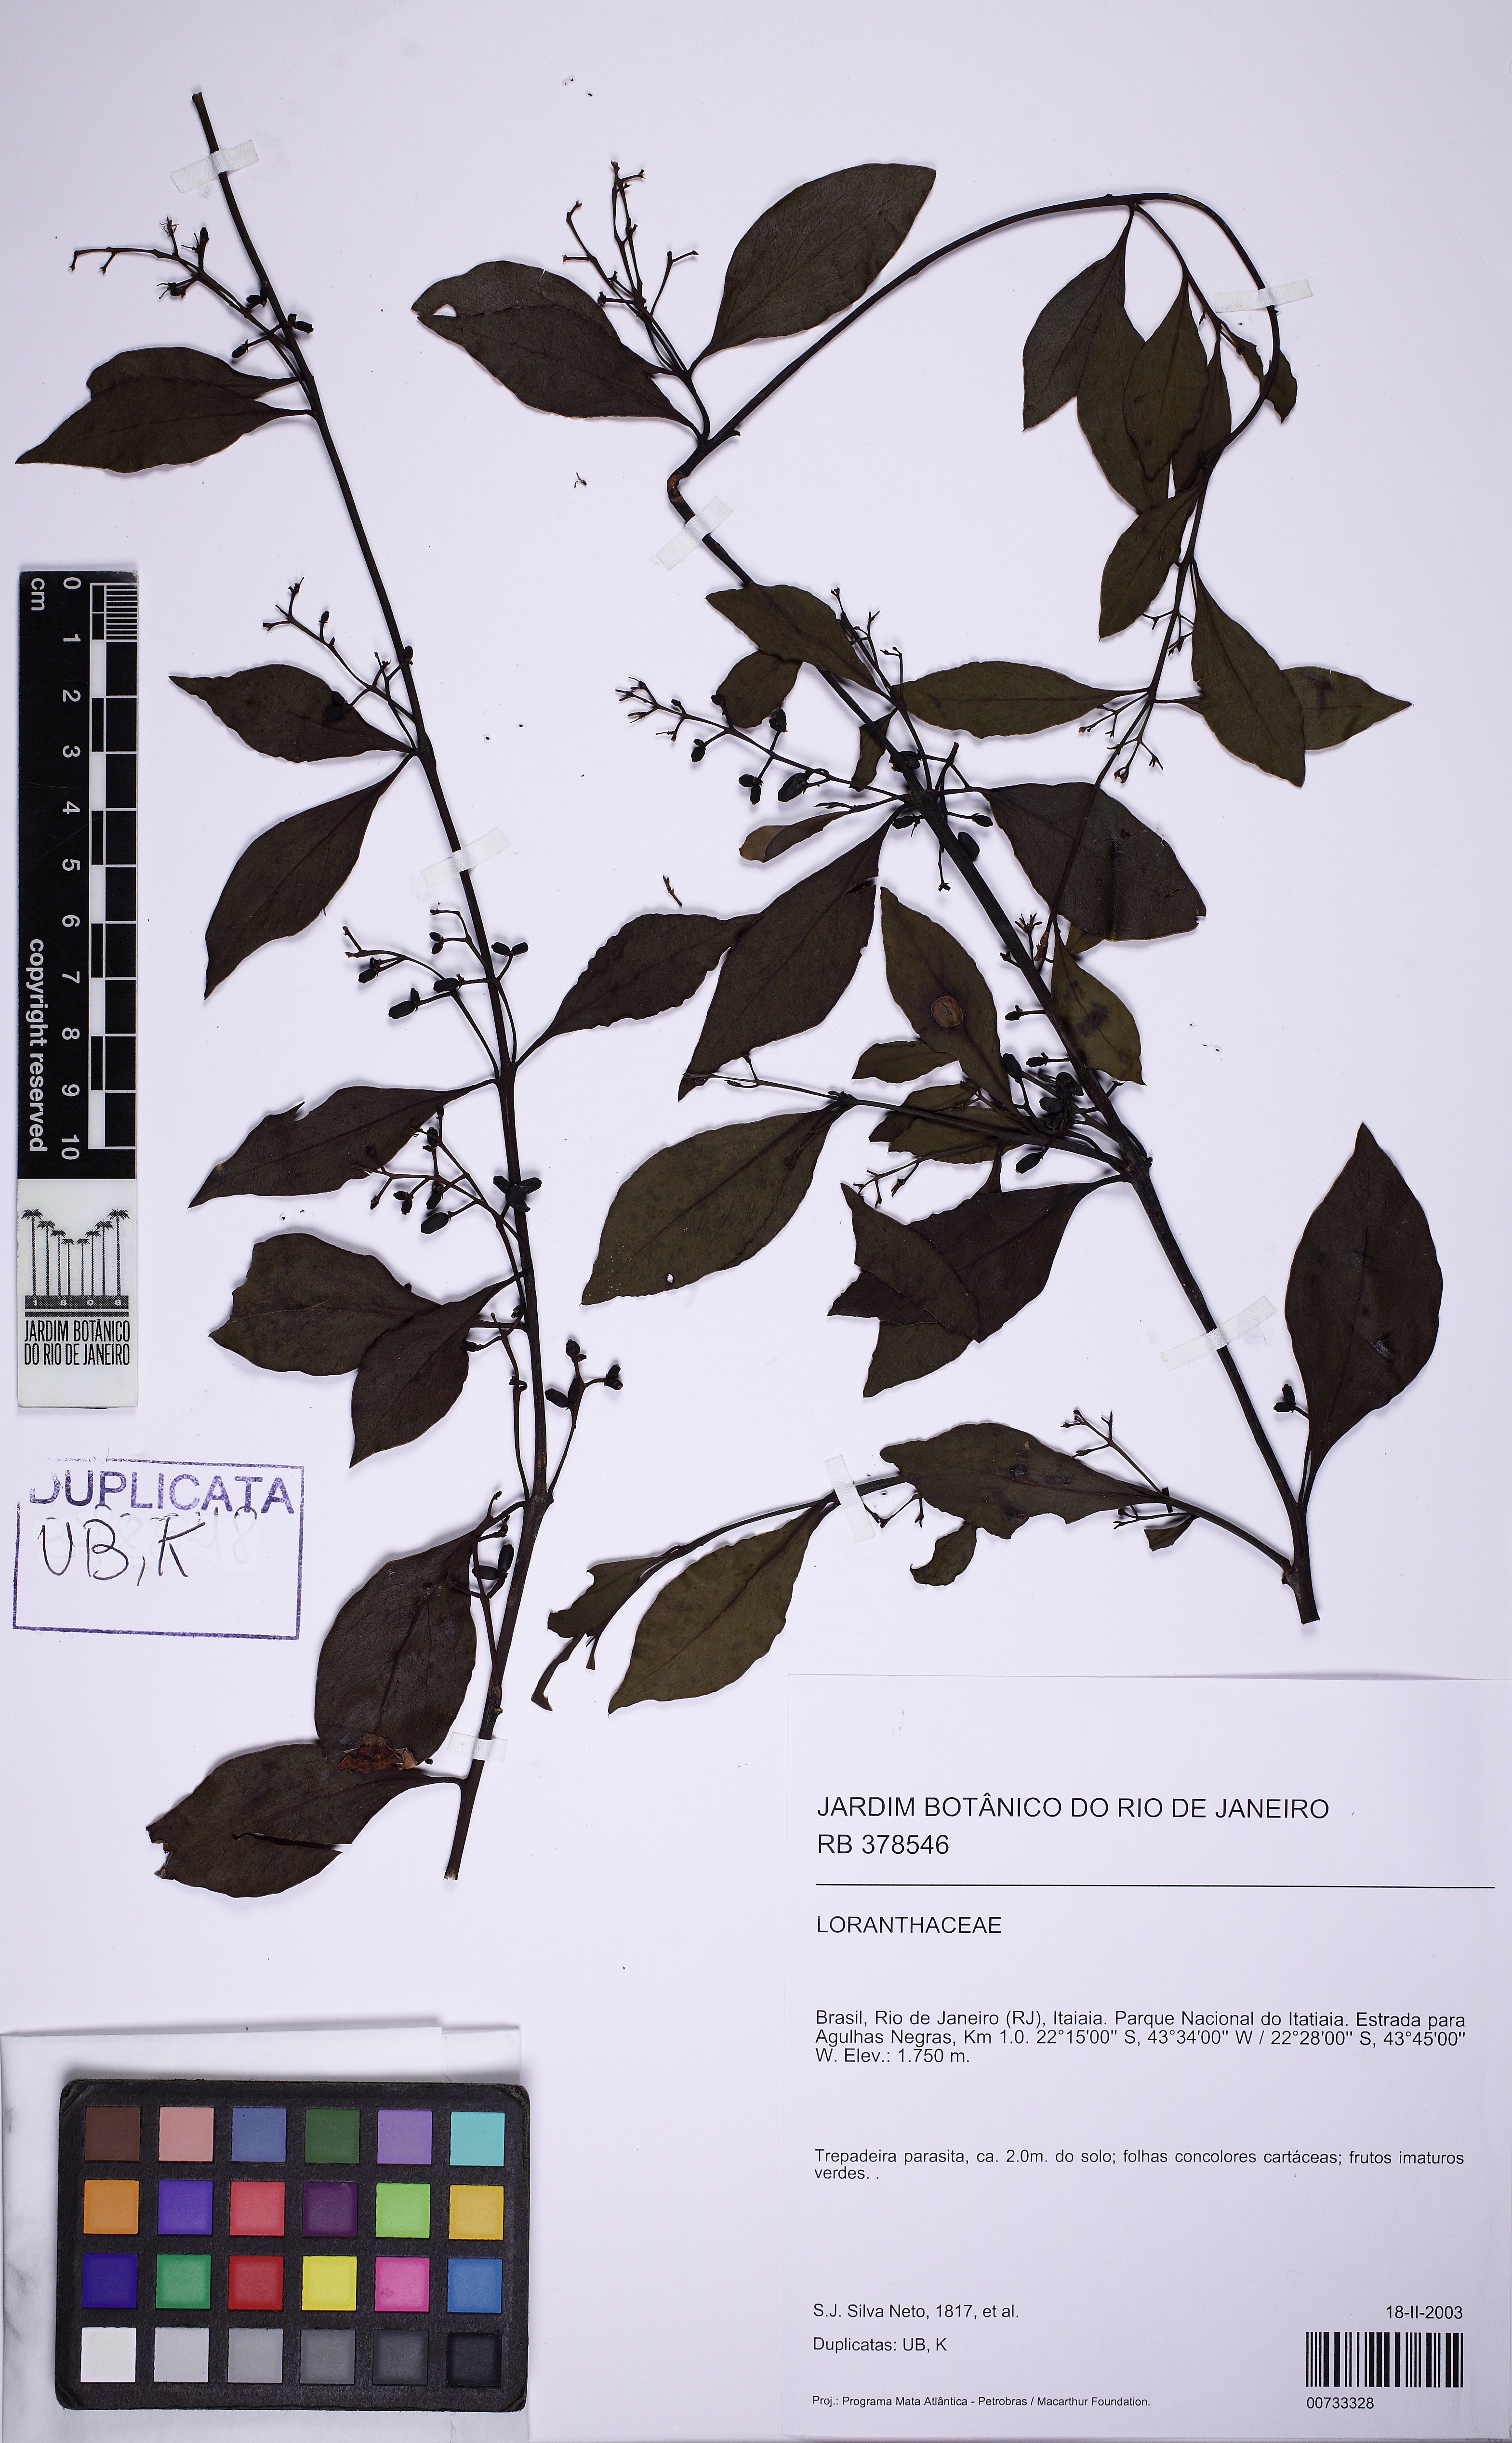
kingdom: Plantae
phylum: Tracheophyta
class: Magnoliopsida
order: Santalales
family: Loranthaceae
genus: Struthanthus
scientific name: Struthanthus
